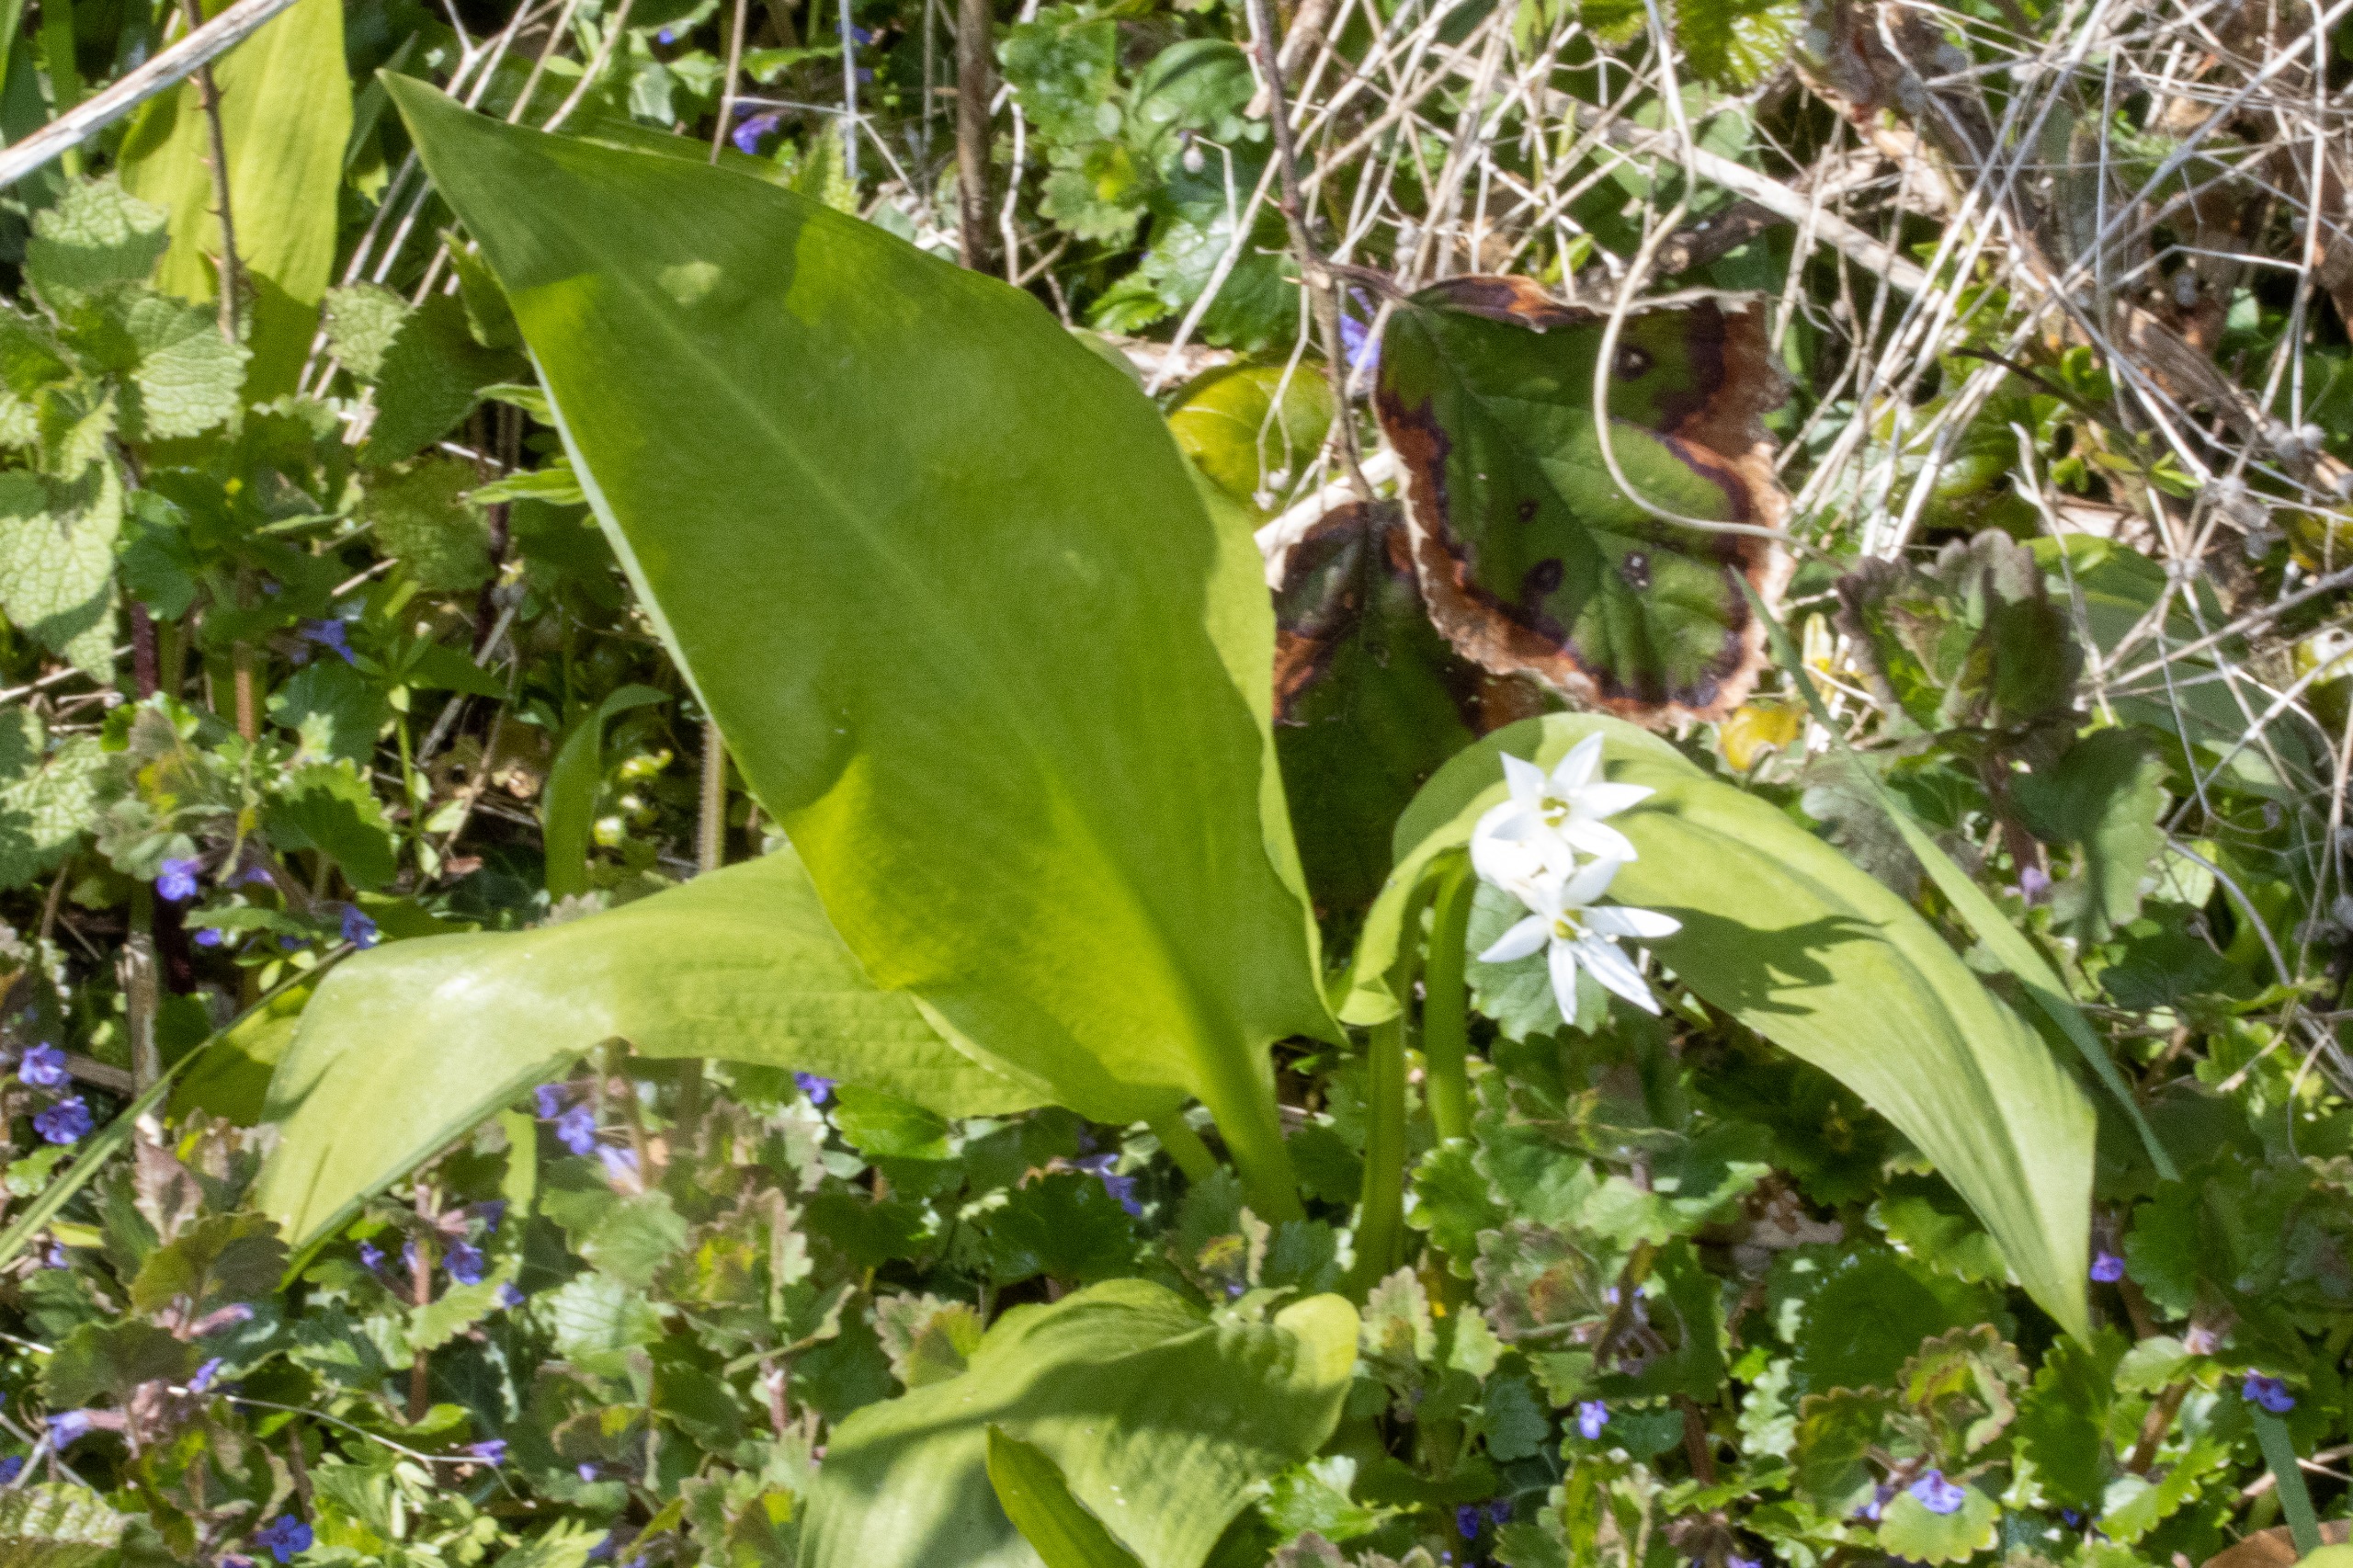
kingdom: Plantae
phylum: Tracheophyta
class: Liliopsida
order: Asparagales
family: Amaryllidaceae
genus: Allium
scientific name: Allium ursinum
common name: Rams-løg
